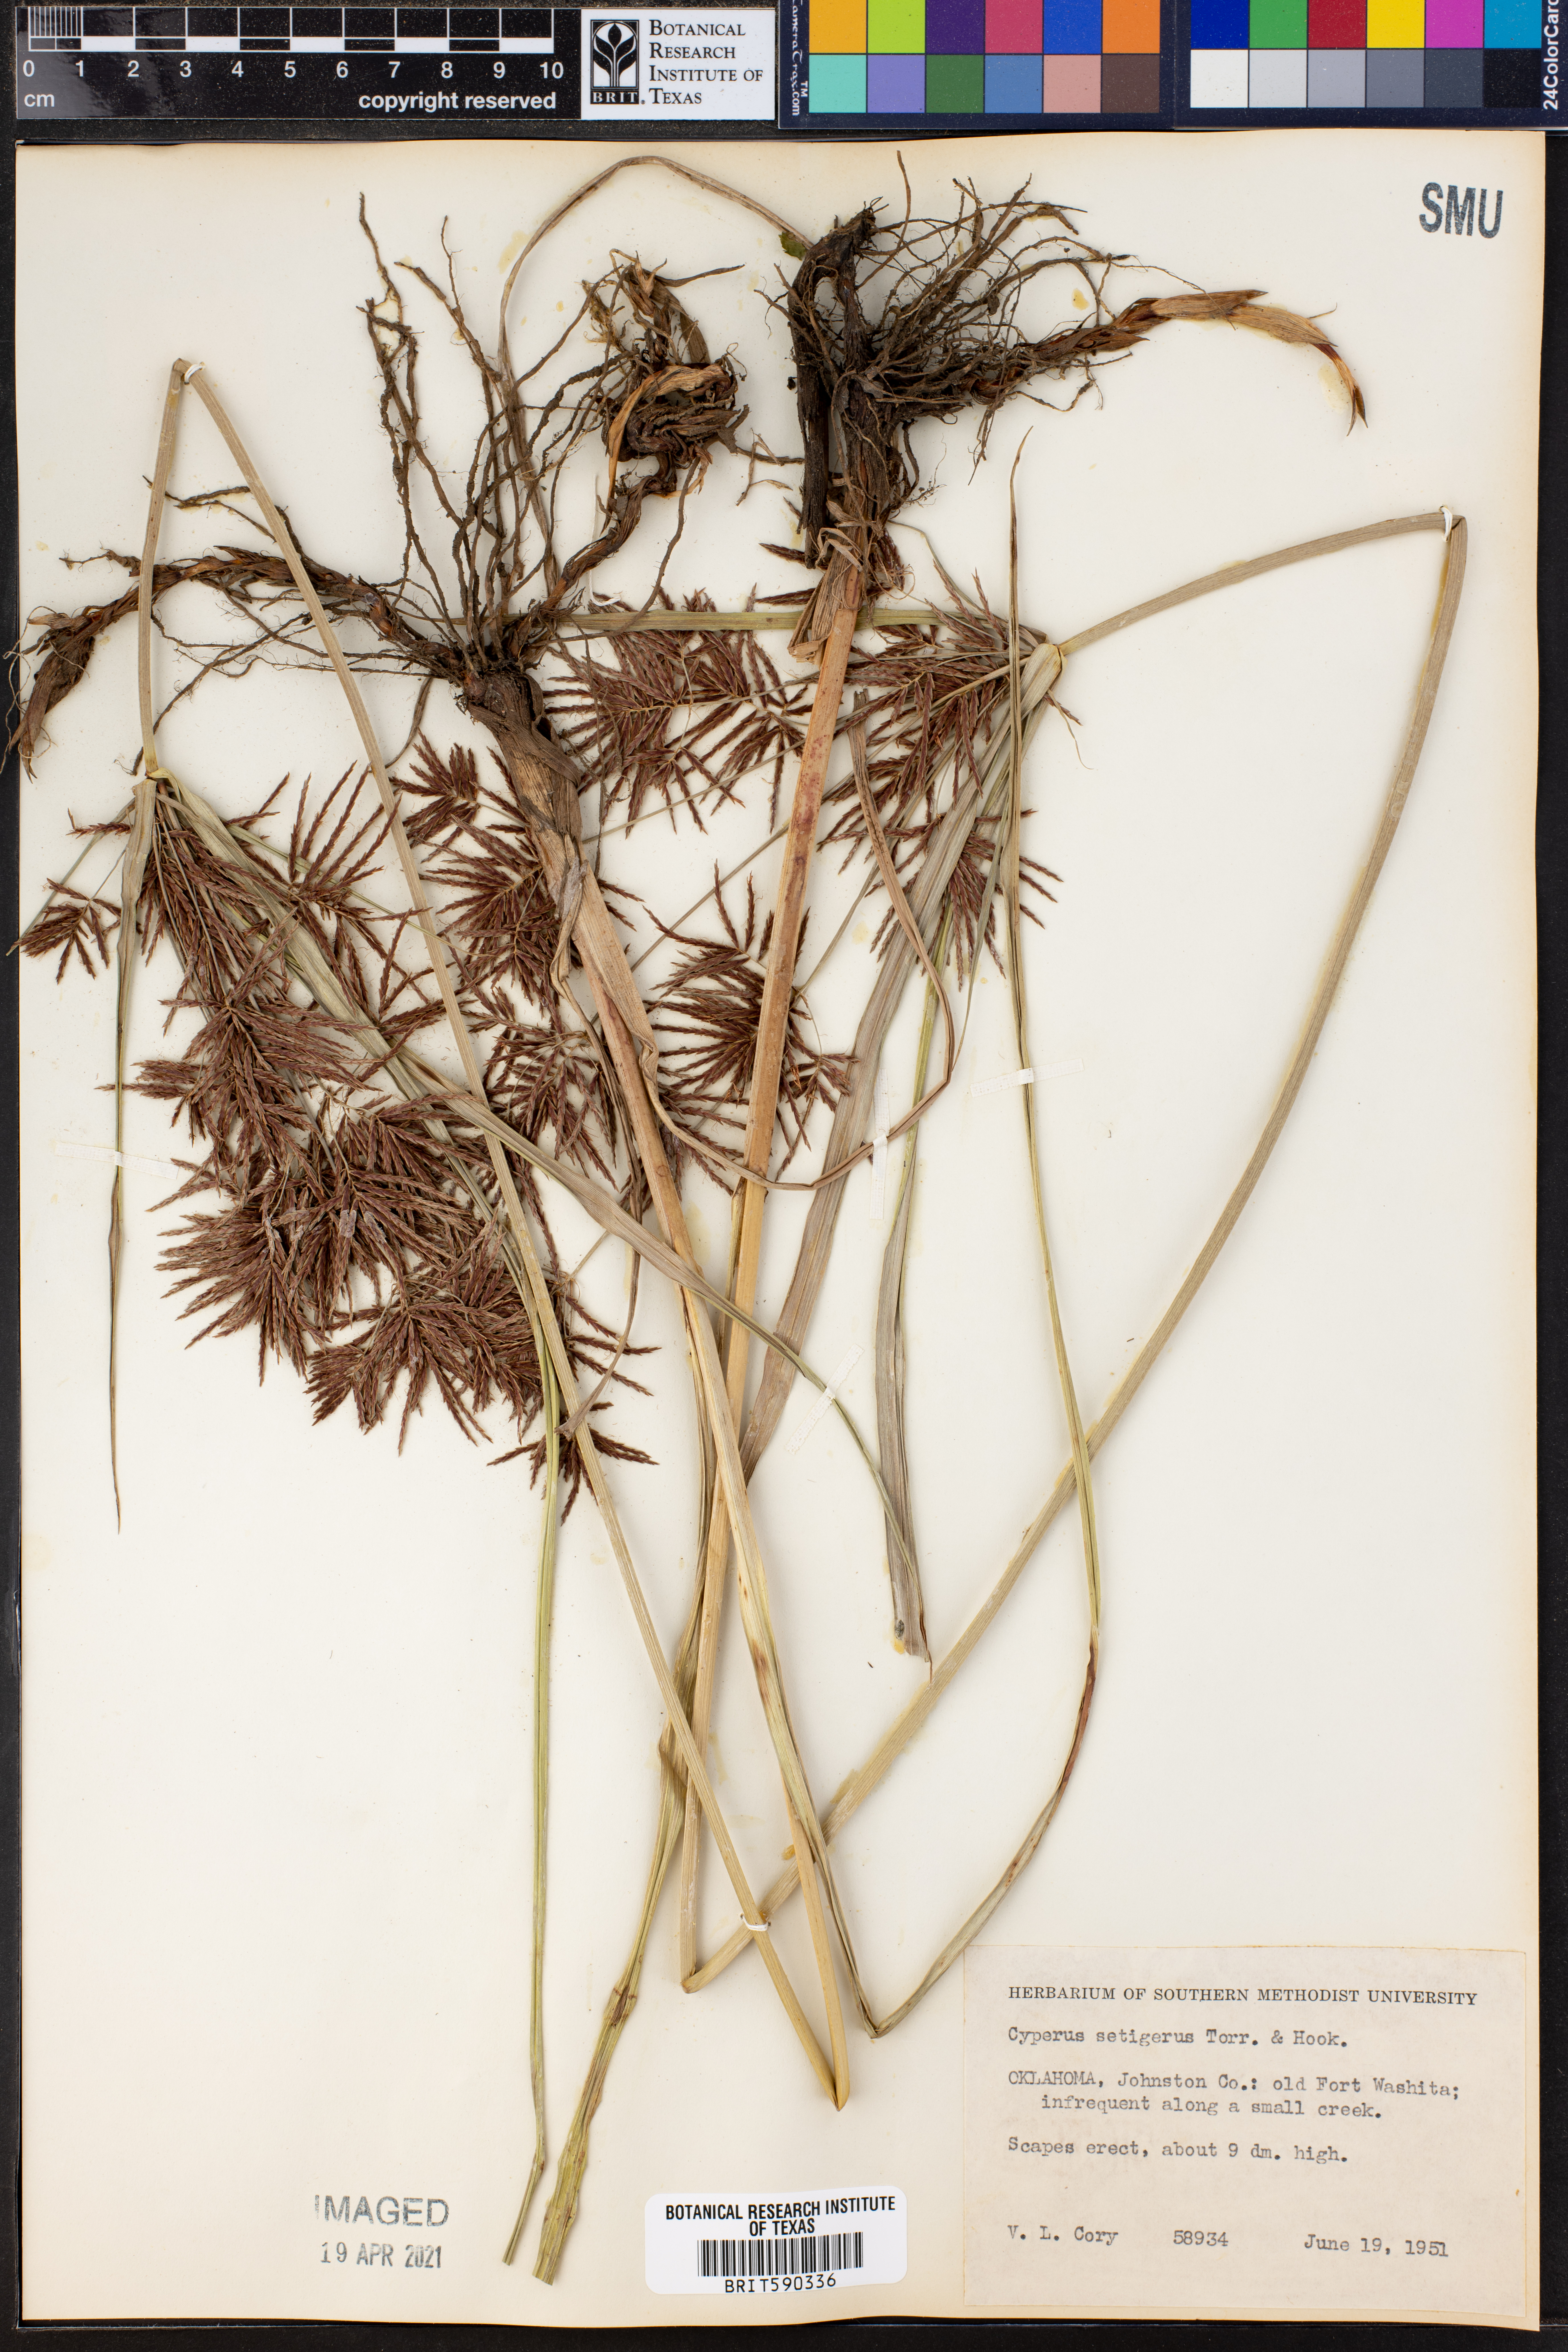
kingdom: Plantae
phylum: Tracheophyta
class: Liliopsida
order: Poales
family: Cyperaceae
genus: Cyperus
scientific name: Cyperus setigerus
